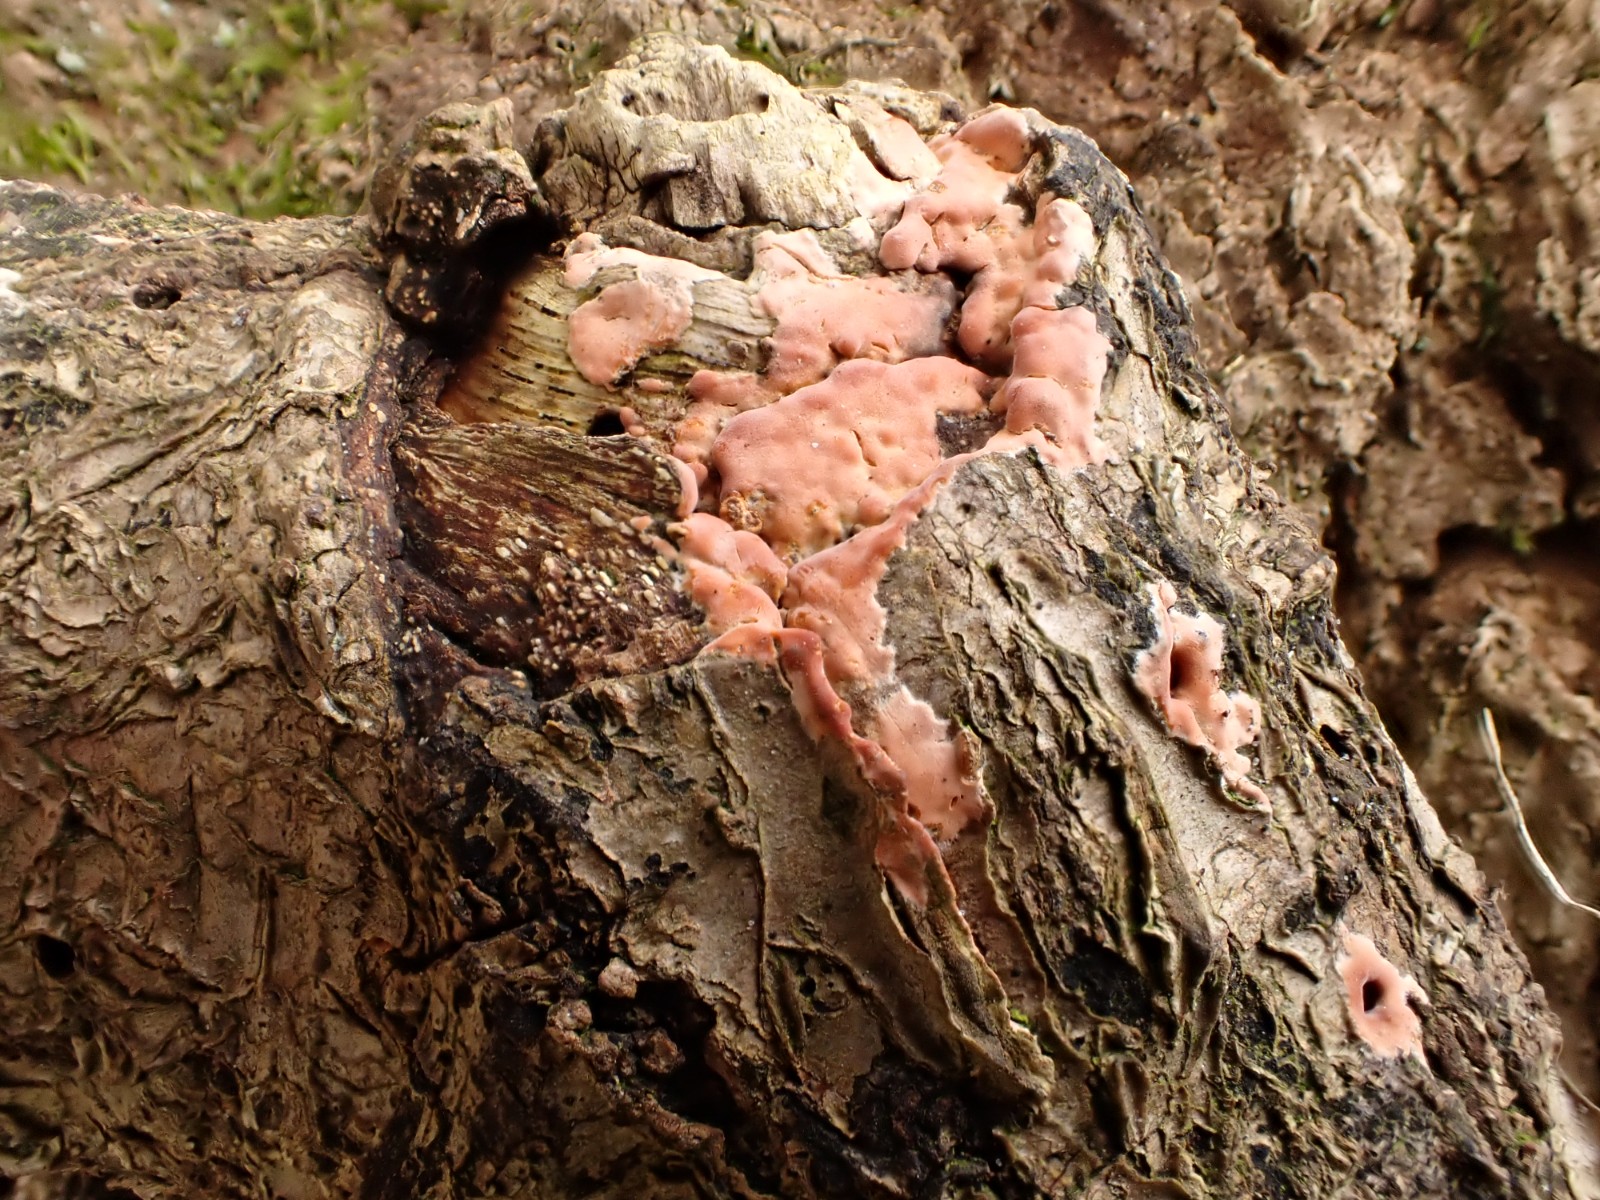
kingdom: Fungi
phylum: Basidiomycota
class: Agaricomycetes
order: Russulales
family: Peniophoraceae
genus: Peniophora
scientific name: Peniophora incarnata
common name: laksefarvet voksskind
